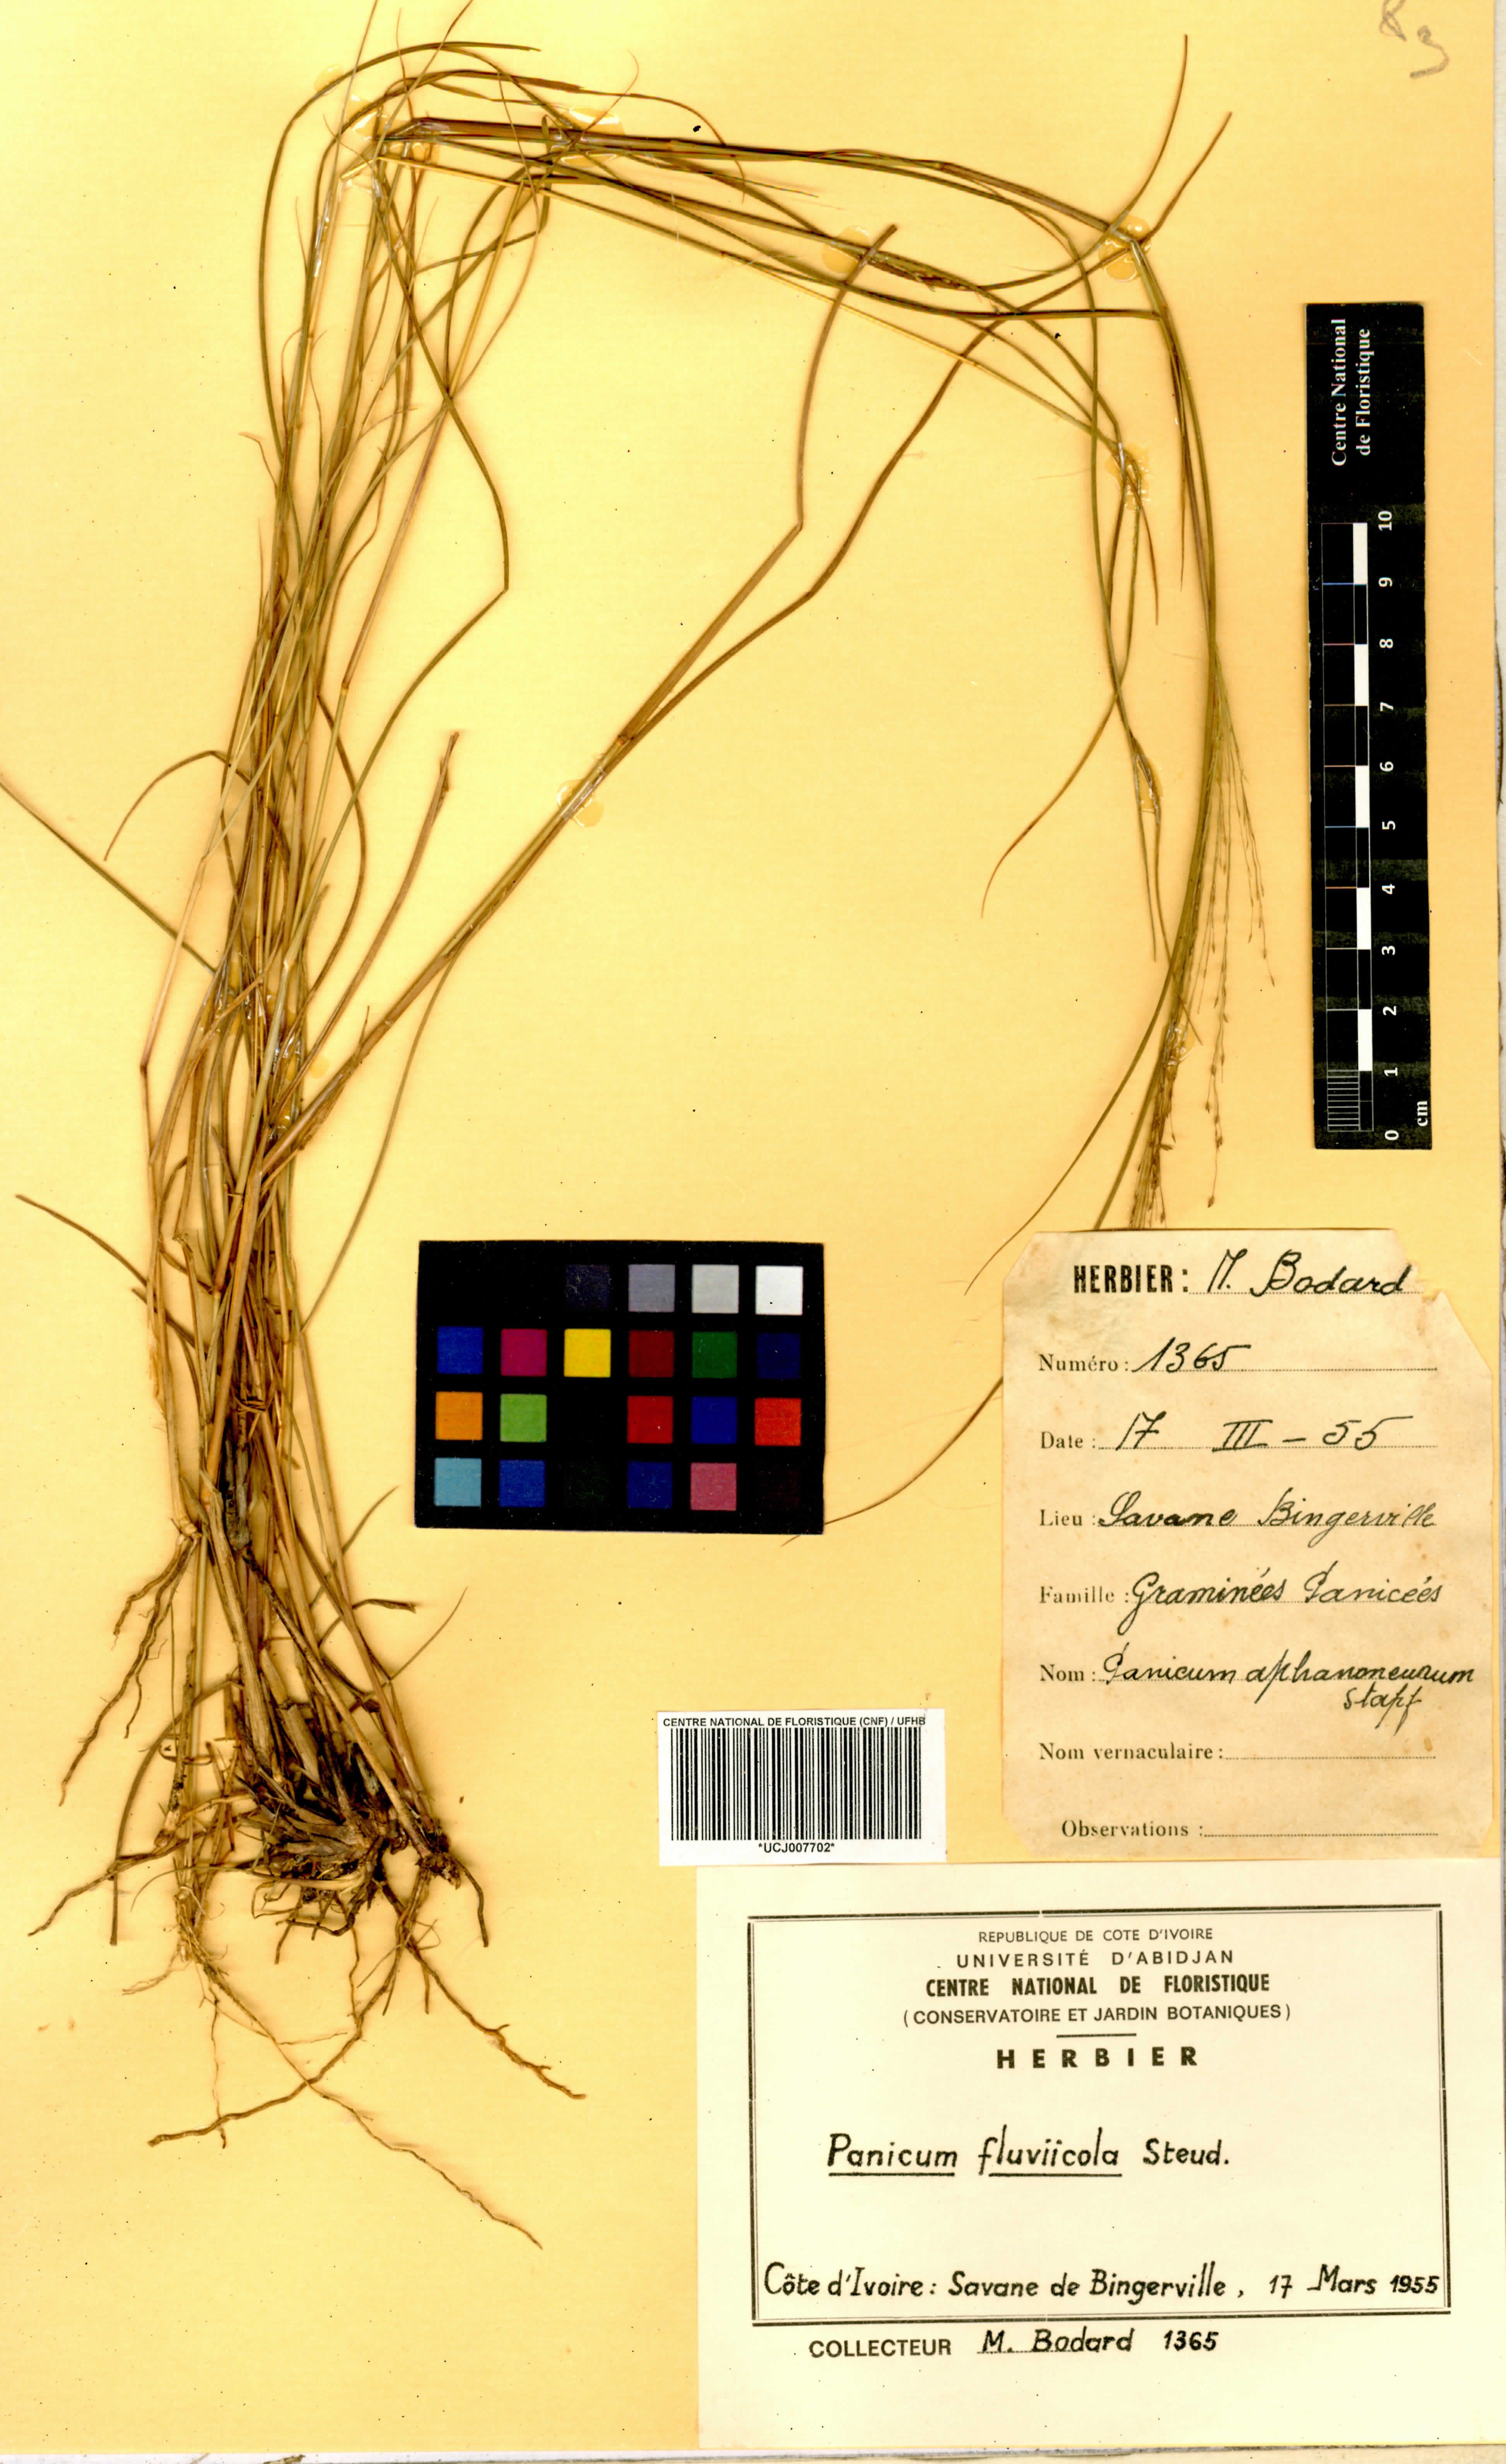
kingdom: Plantae
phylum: Tracheophyta
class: Liliopsida
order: Poales
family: Poaceae
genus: Panicum
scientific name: Panicum fluviicola
